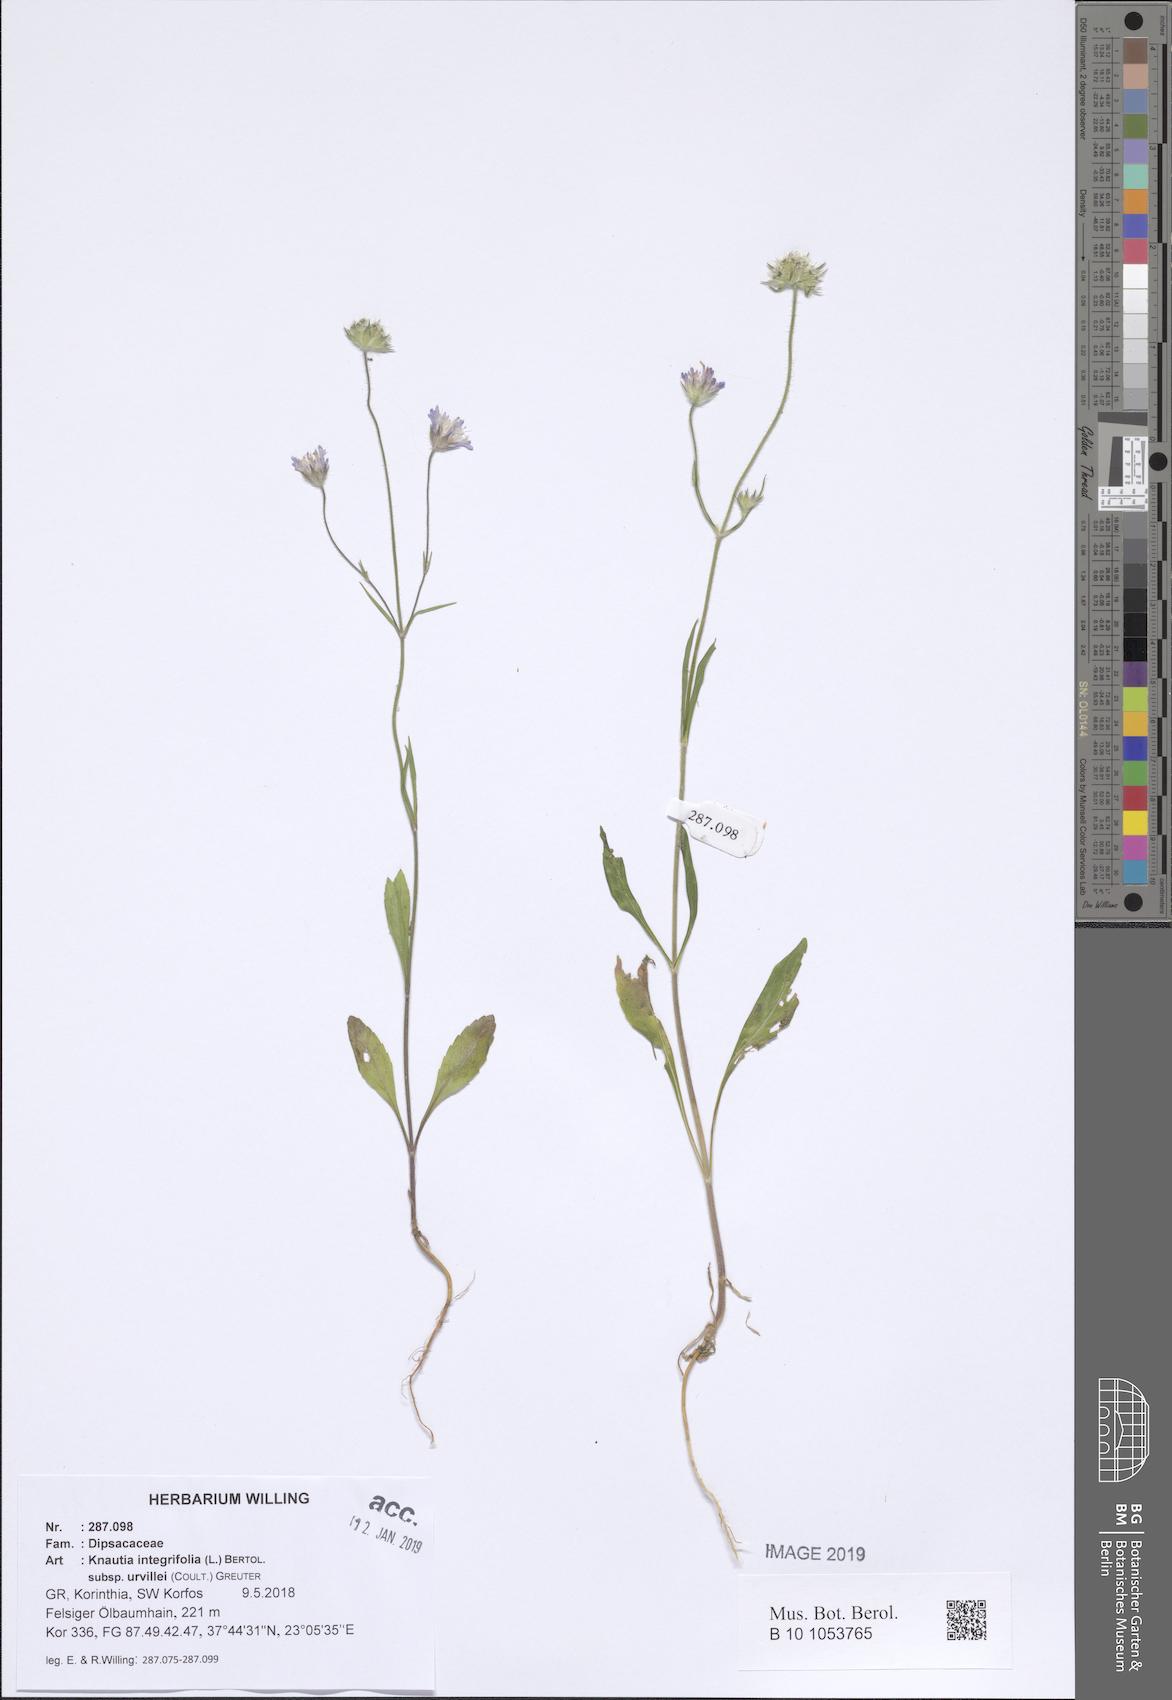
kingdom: Plantae
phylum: Tracheophyta
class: Magnoliopsida
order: Dipsacales
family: Caprifoliaceae
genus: Knautia
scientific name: Knautia integrifolia
